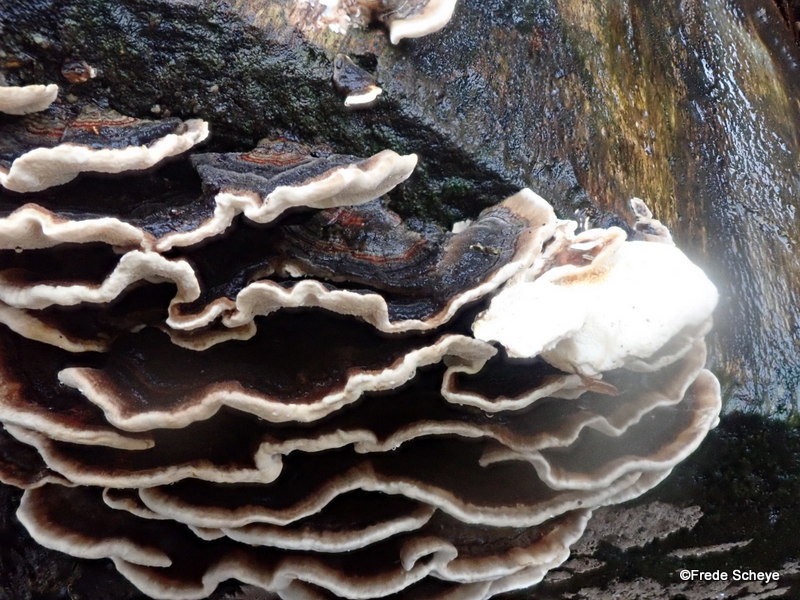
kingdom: Fungi
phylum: Basidiomycota
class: Agaricomycetes
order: Polyporales
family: Polyporaceae
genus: Trametes
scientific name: Trametes versicolor
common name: broget læderporesvamp
